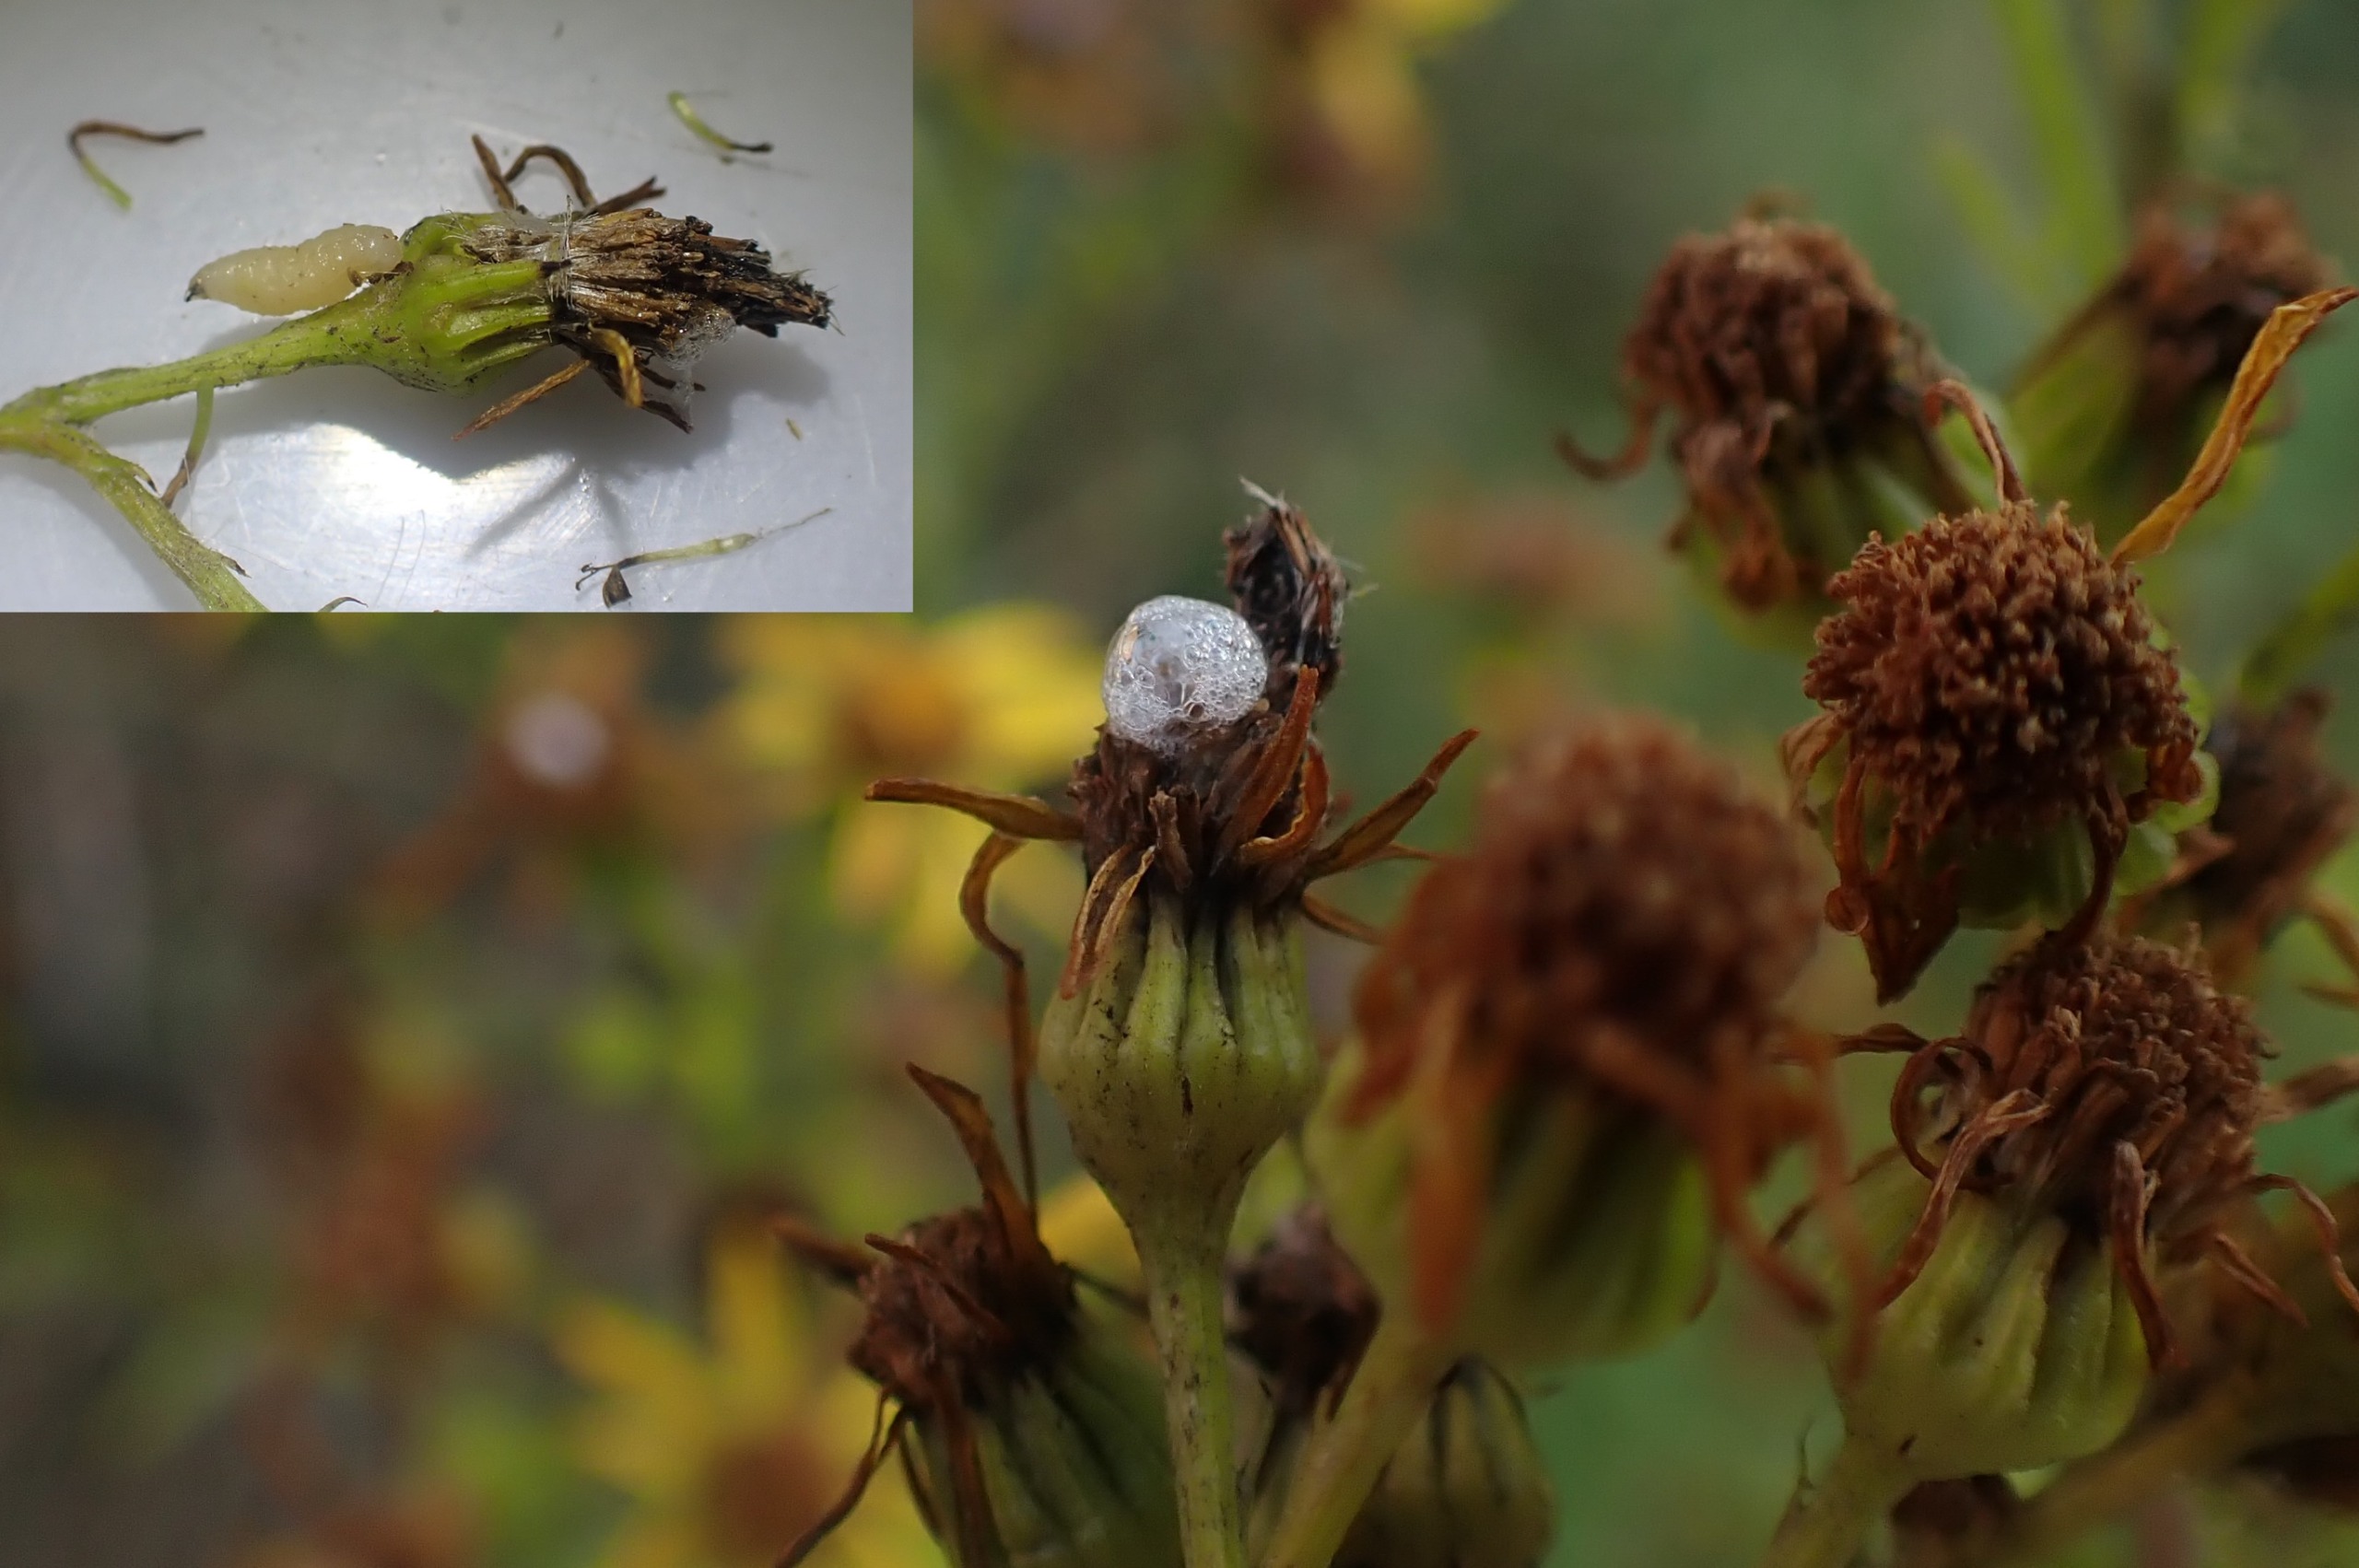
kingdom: Animalia
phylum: Arthropoda
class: Insecta
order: Diptera
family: Anthomyiidae
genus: Botanophila
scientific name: Botanophila seneciella
